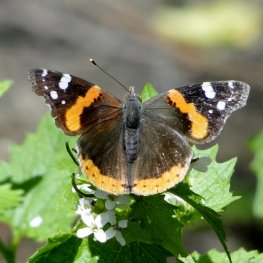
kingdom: Animalia
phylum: Arthropoda
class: Insecta
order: Lepidoptera
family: Nymphalidae
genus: Vanessa
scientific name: Vanessa atalanta
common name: Red Admiral
